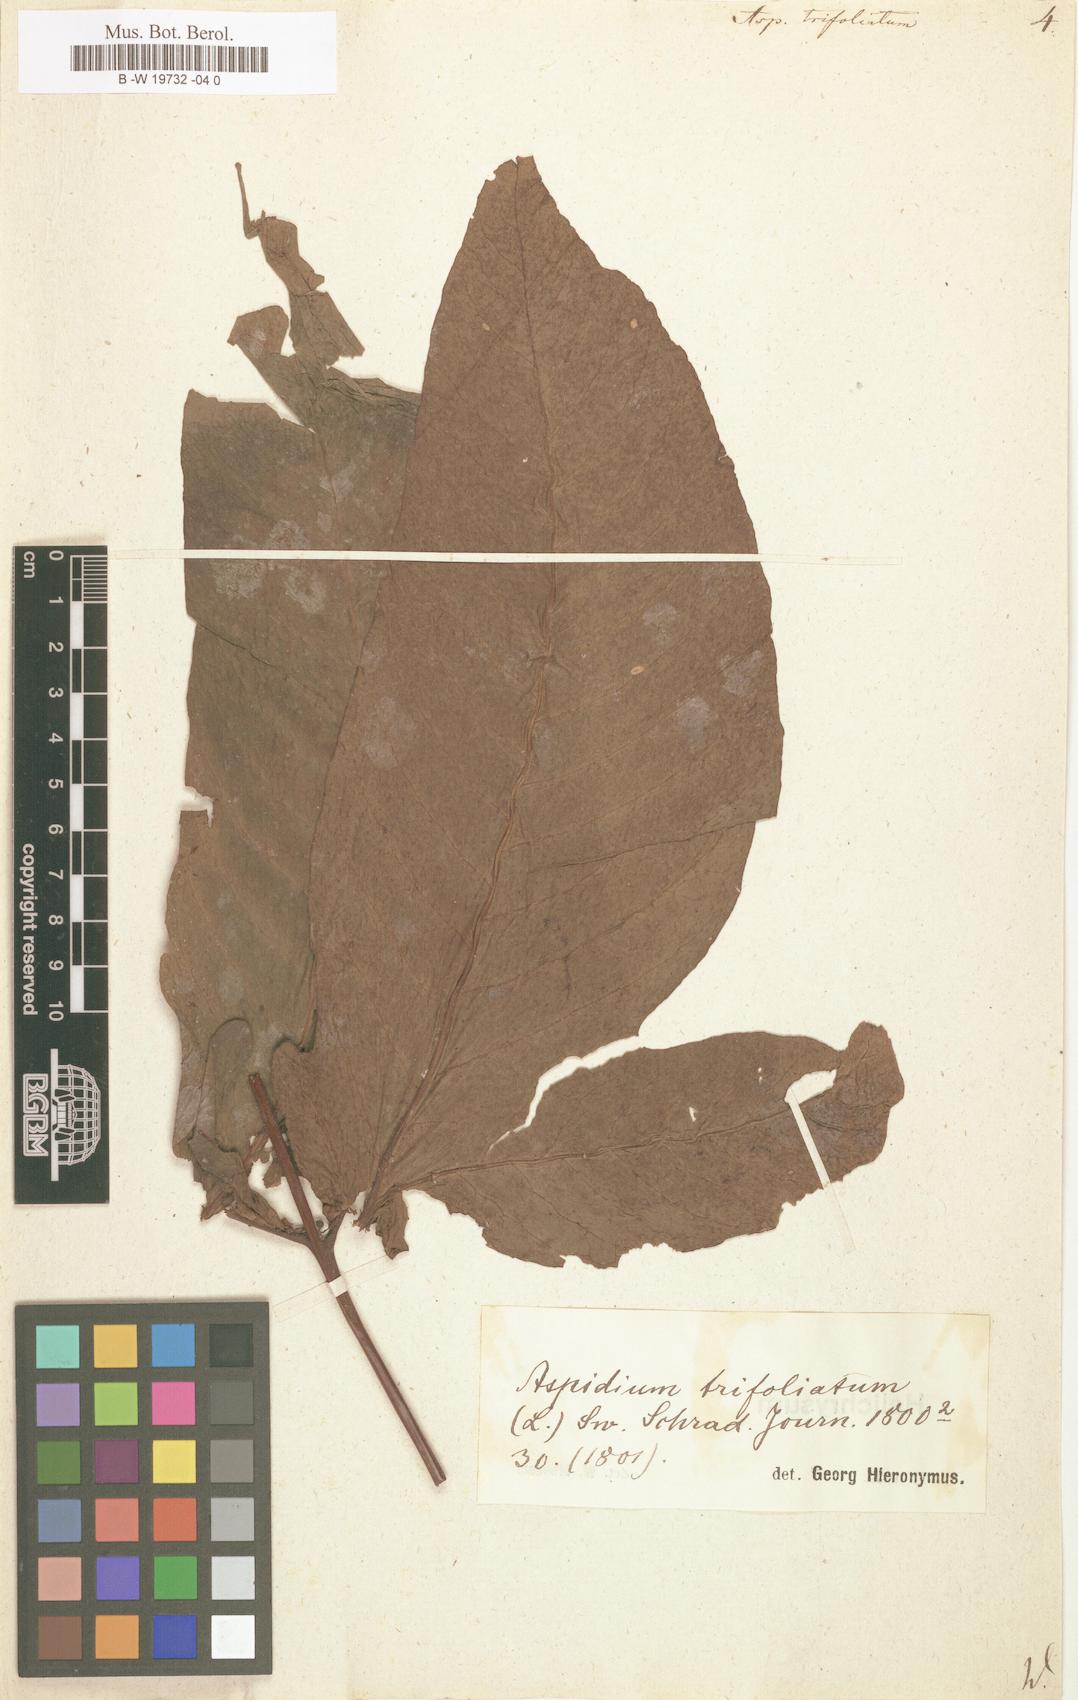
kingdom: Plantae
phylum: Tracheophyta
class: Polypodiopsida
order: Polypodiales
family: Tectariaceae
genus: Tectaria
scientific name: Tectaria
